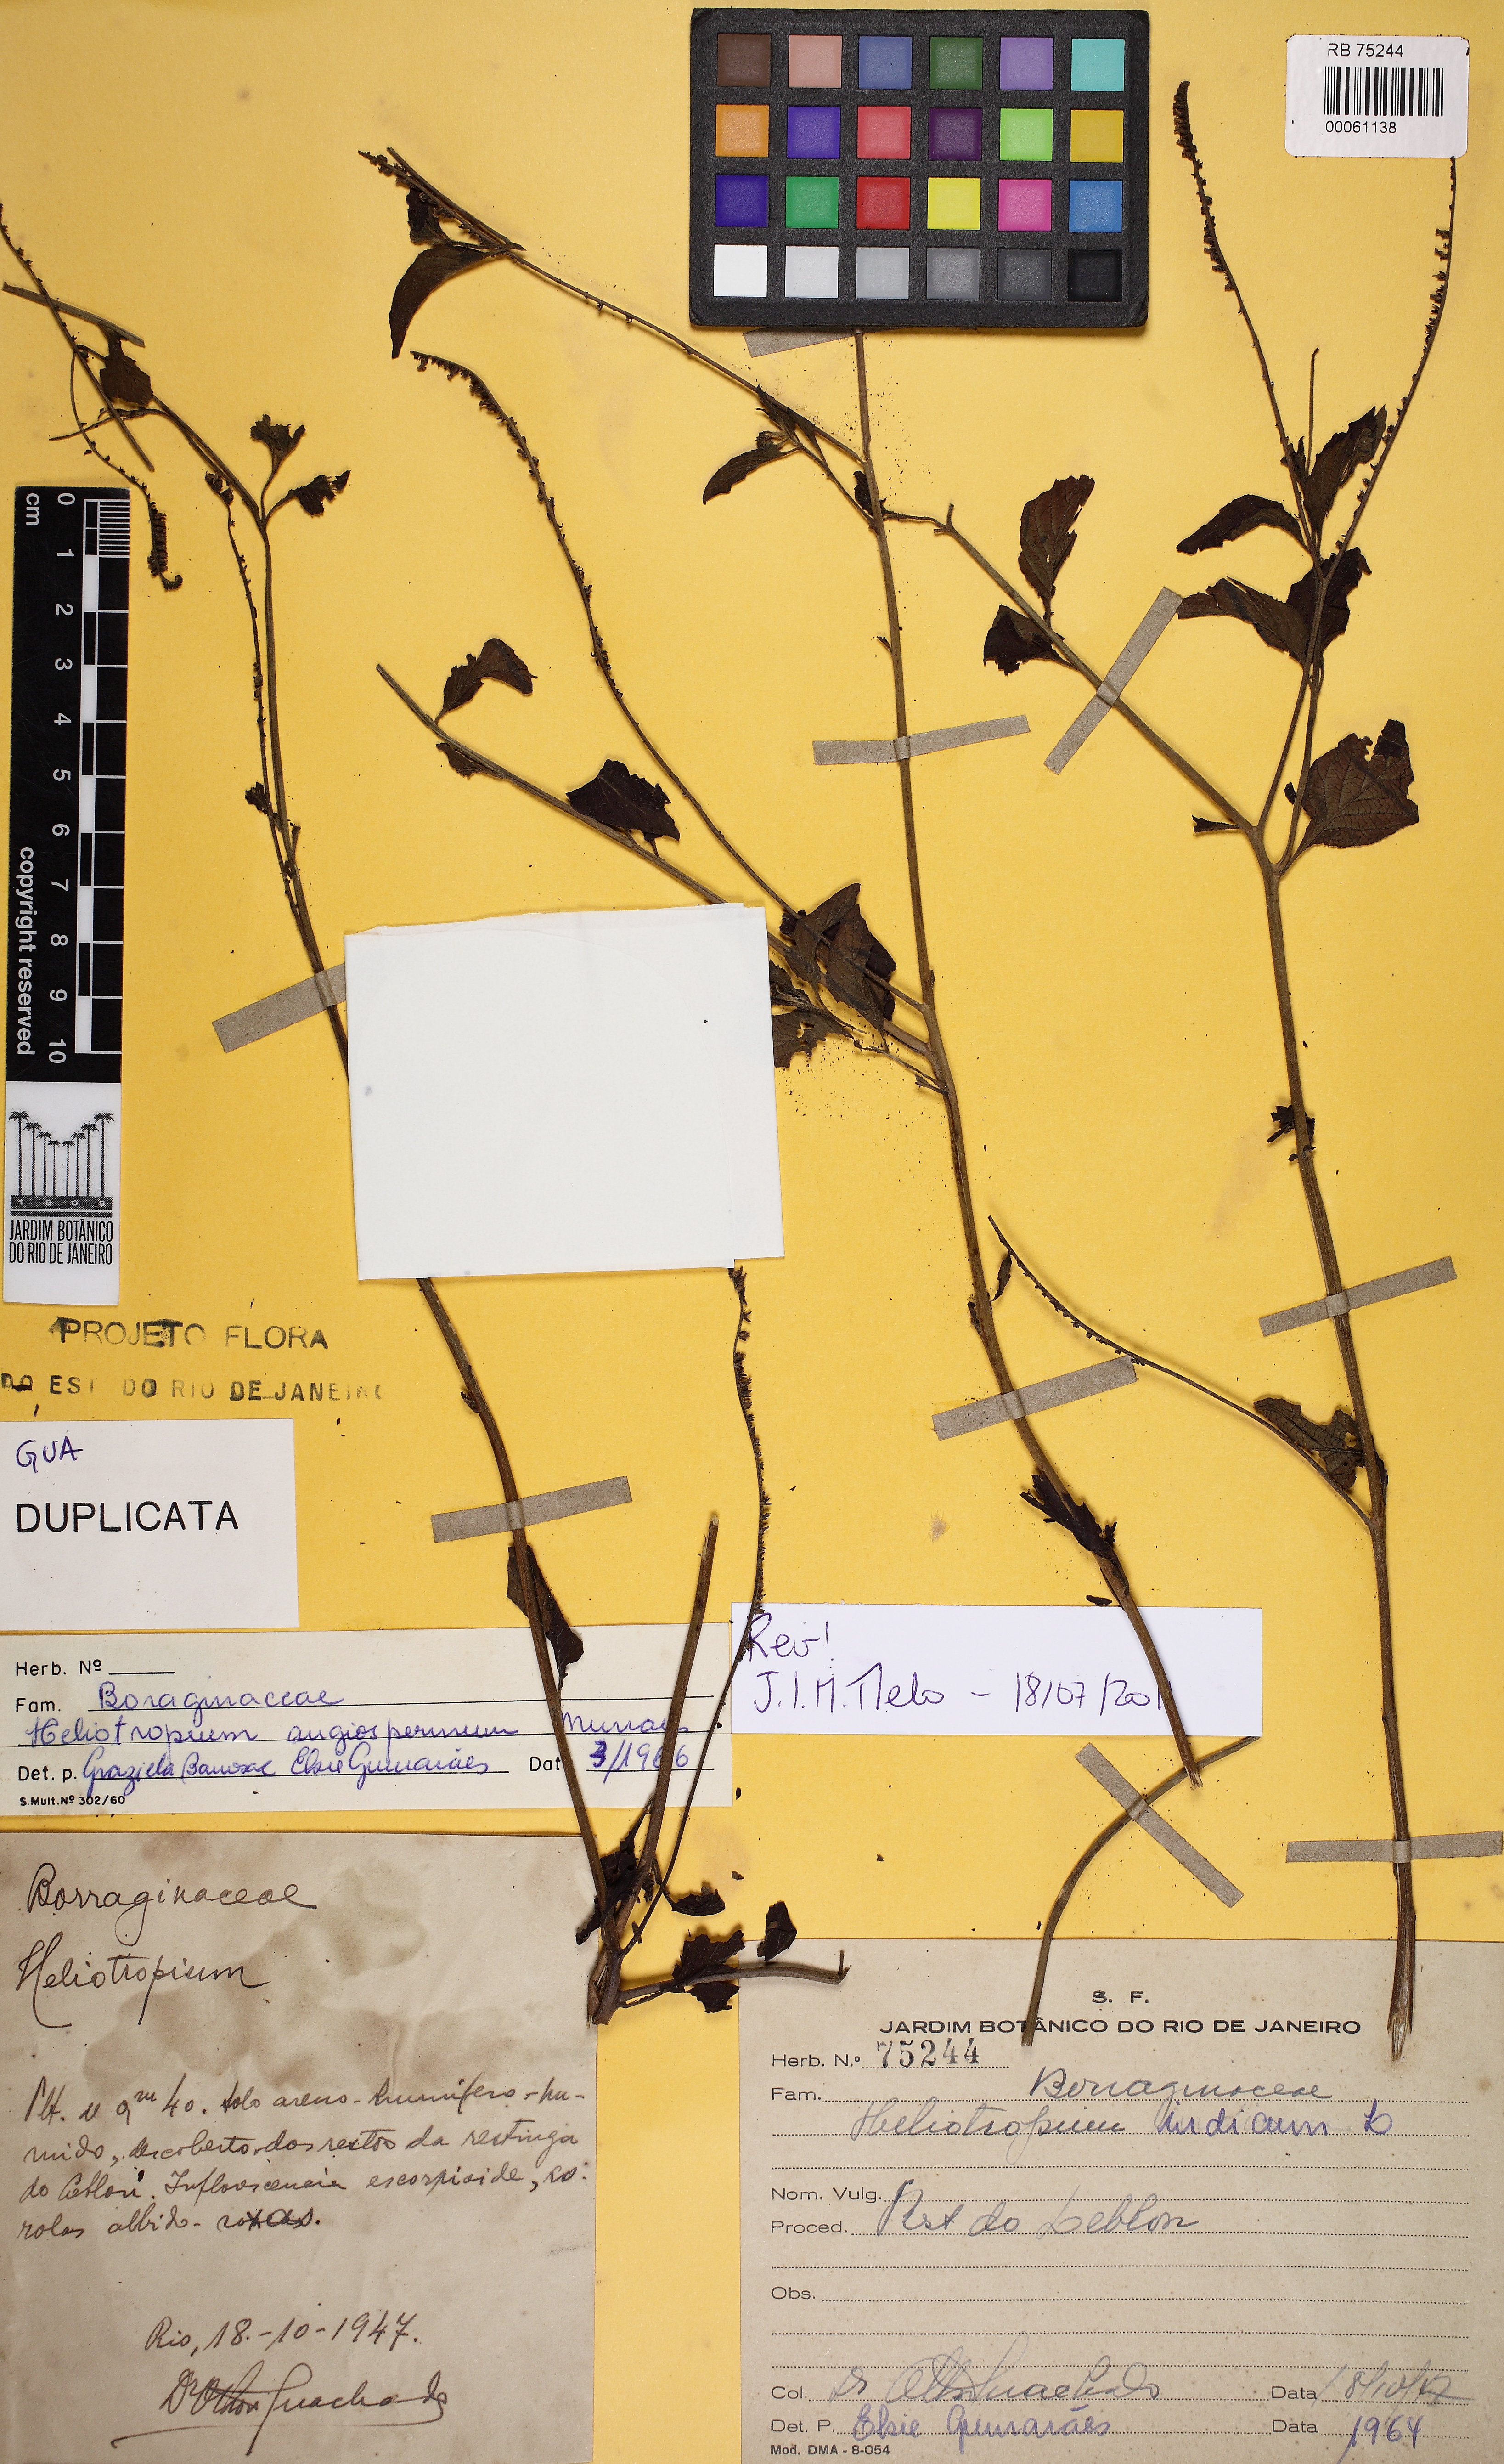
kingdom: Plantae
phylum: Tracheophyta
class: Magnoliopsida
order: Boraginales
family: Heliotropiaceae
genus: Heliotropium
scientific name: Heliotropium angiospermum
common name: Eye bright
